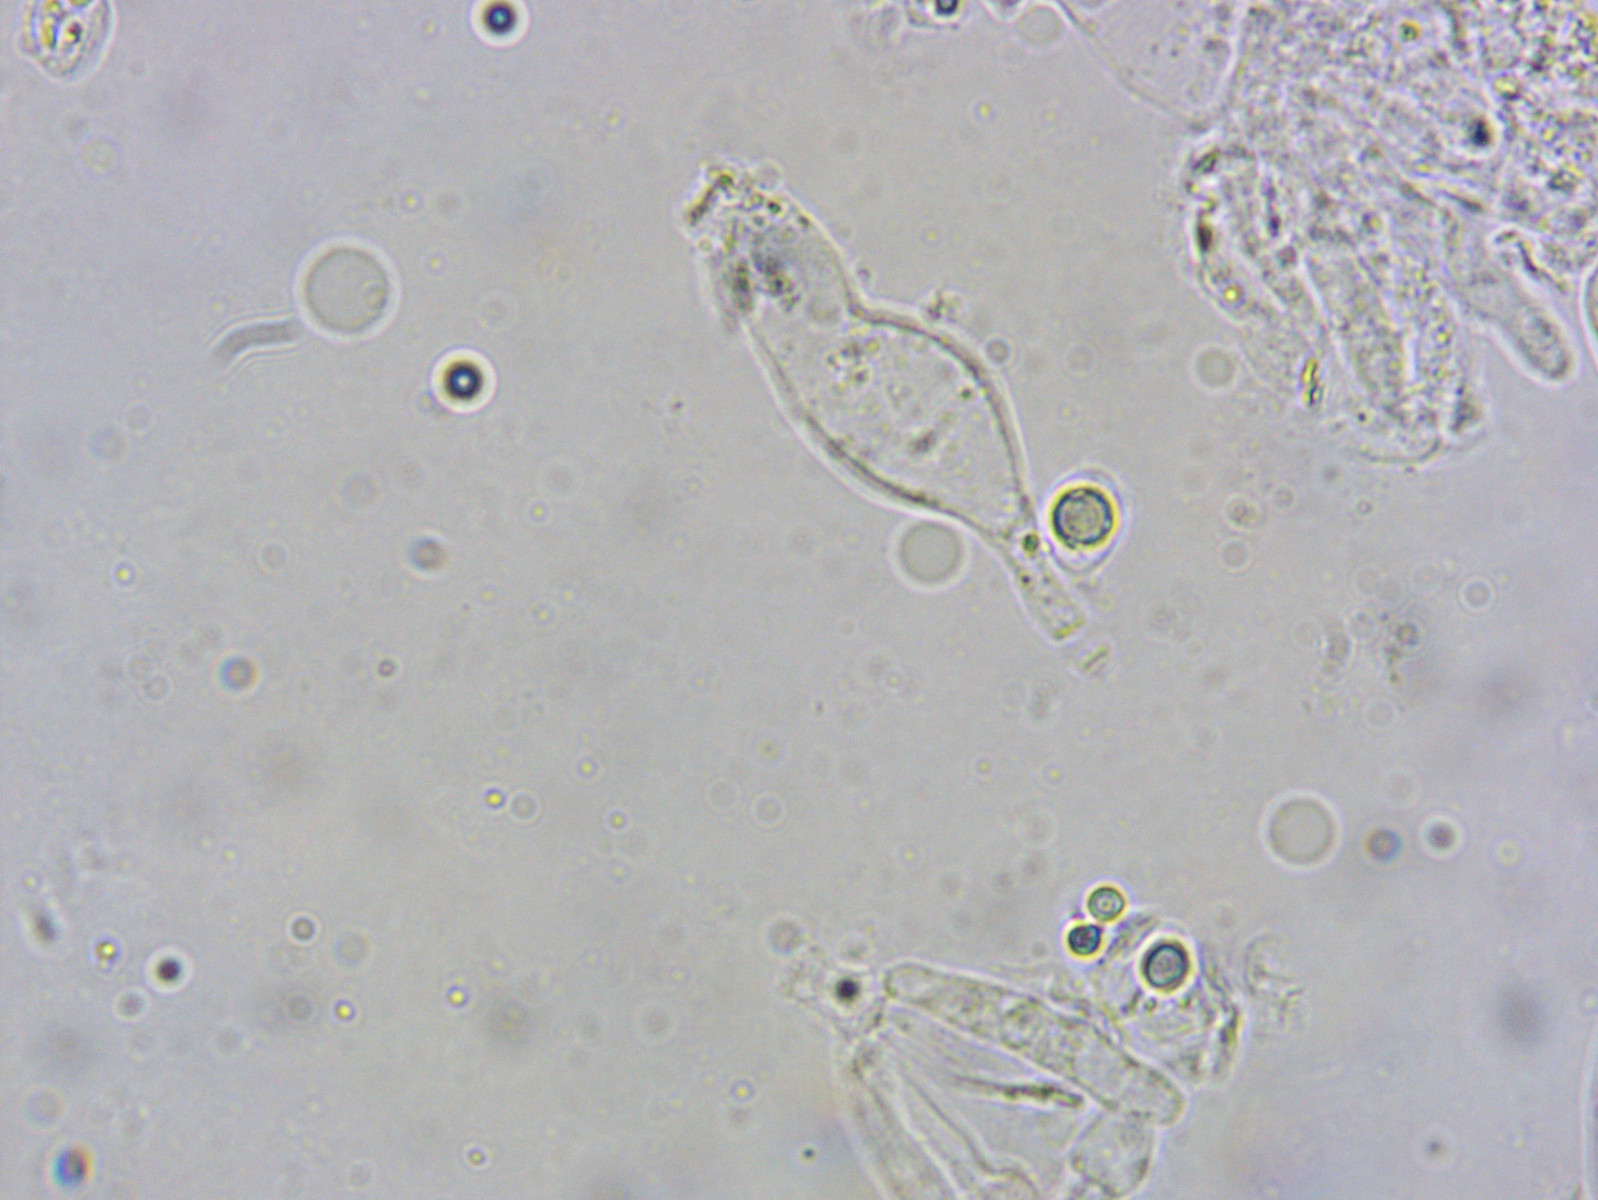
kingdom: Fungi
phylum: Basidiomycota
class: Agaricomycetes
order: Agaricales
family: Porotheleaceae
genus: Phloeomana
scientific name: Phloeomana hiemalis
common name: sen huesvamp
